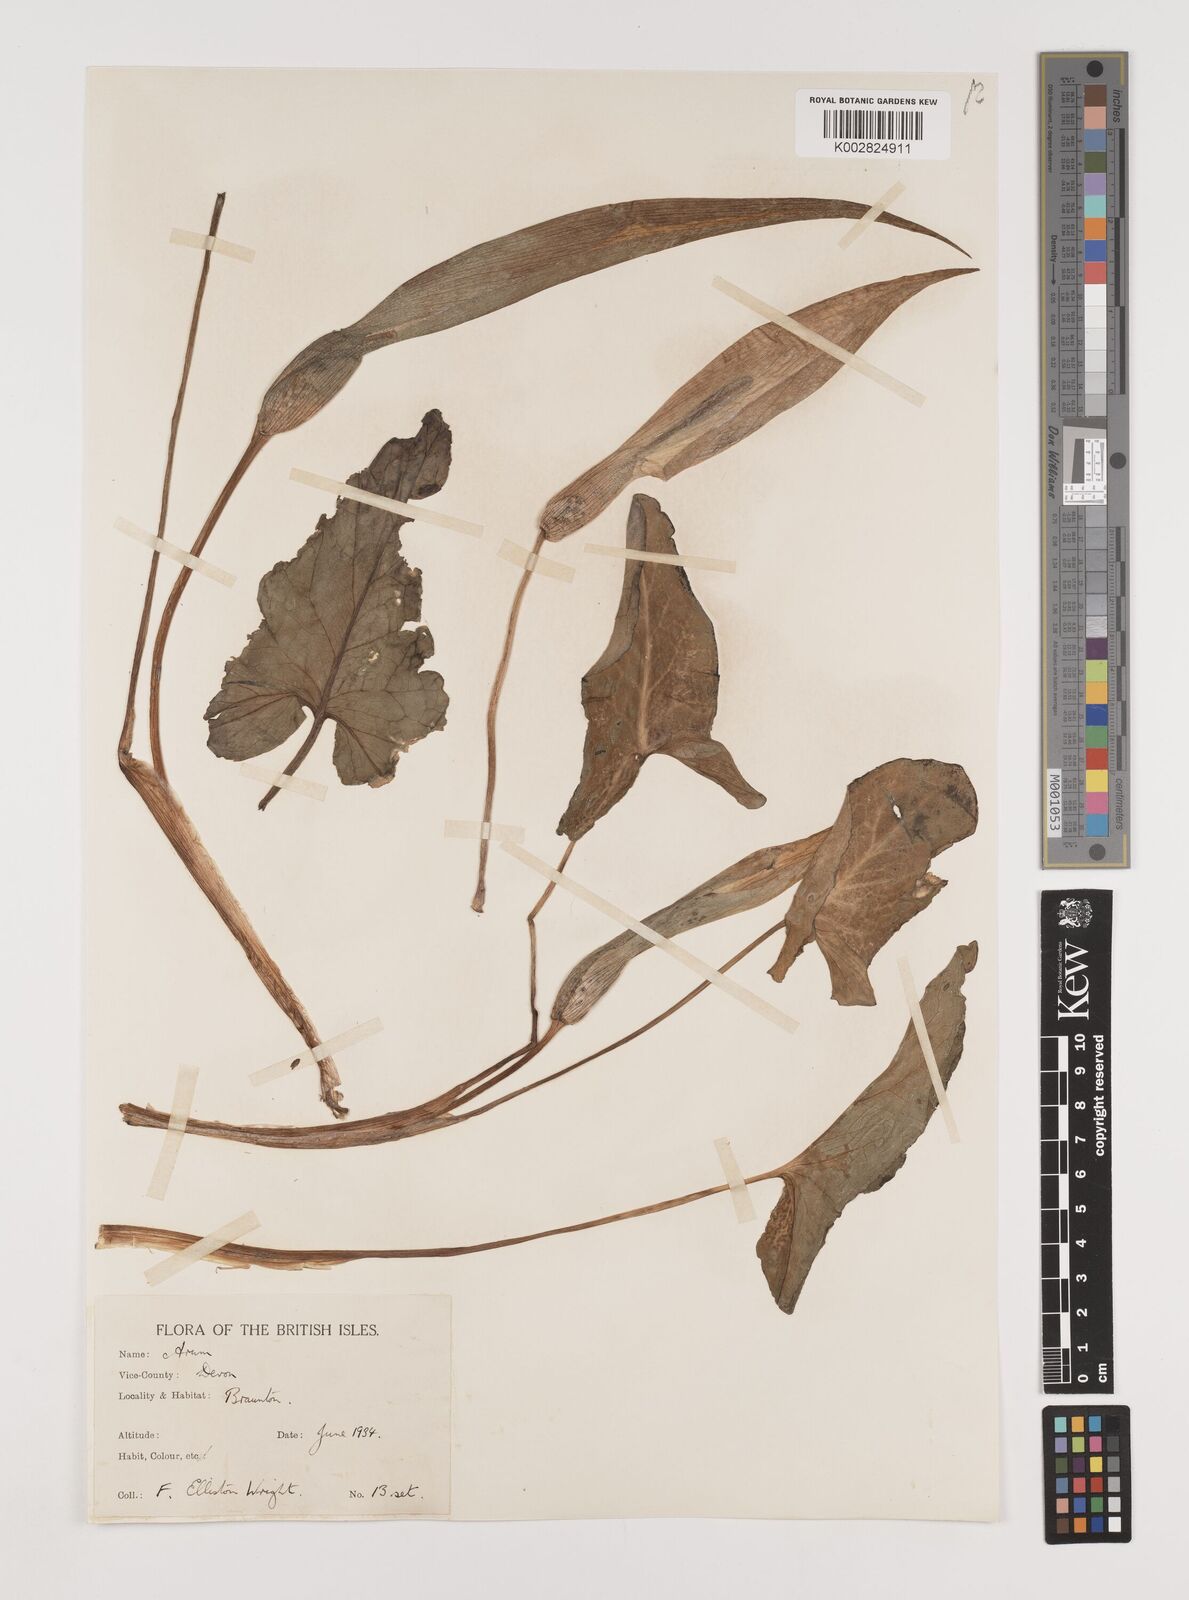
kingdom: Plantae
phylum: Tracheophyta
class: Liliopsida
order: Alismatales
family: Araceae
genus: Arum
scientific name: Arum italicum
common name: Italian lords-and-ladies
